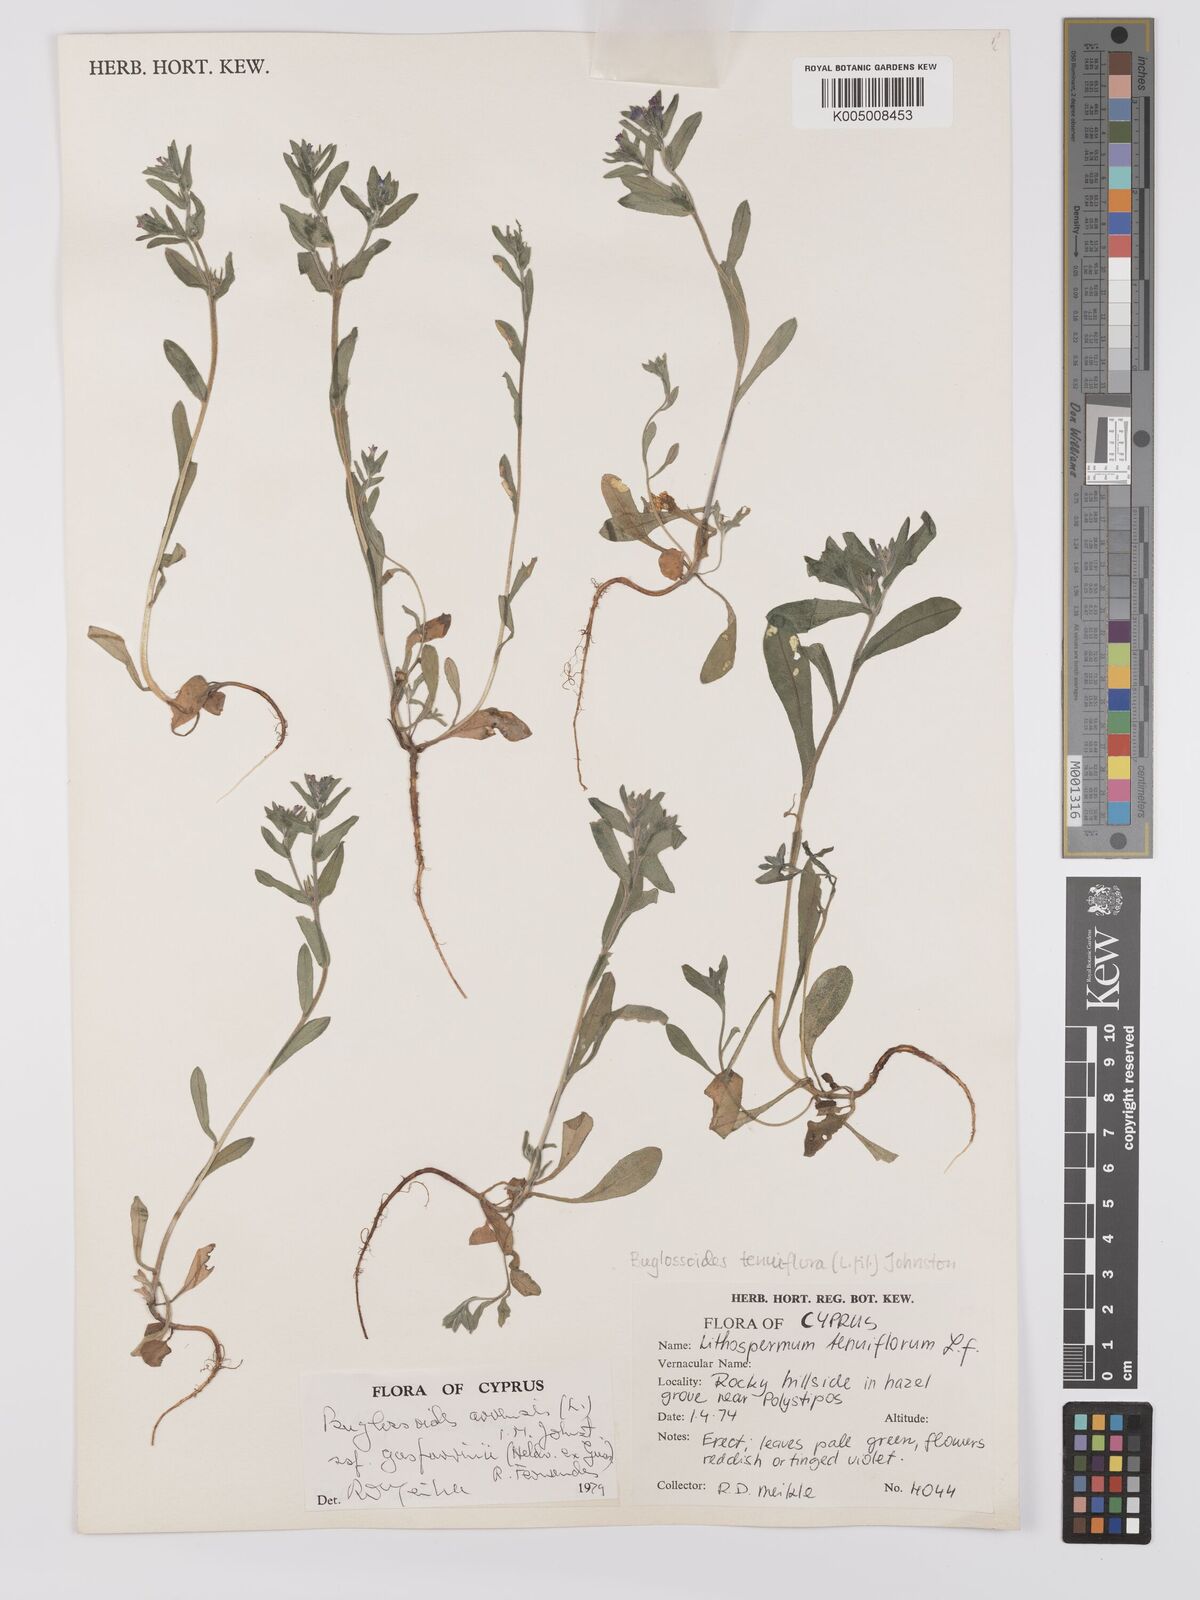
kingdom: Plantae
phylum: Tracheophyta
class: Magnoliopsida
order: Boraginales
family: Boraginaceae
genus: Buglossoides
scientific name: Buglossoides incrassata
